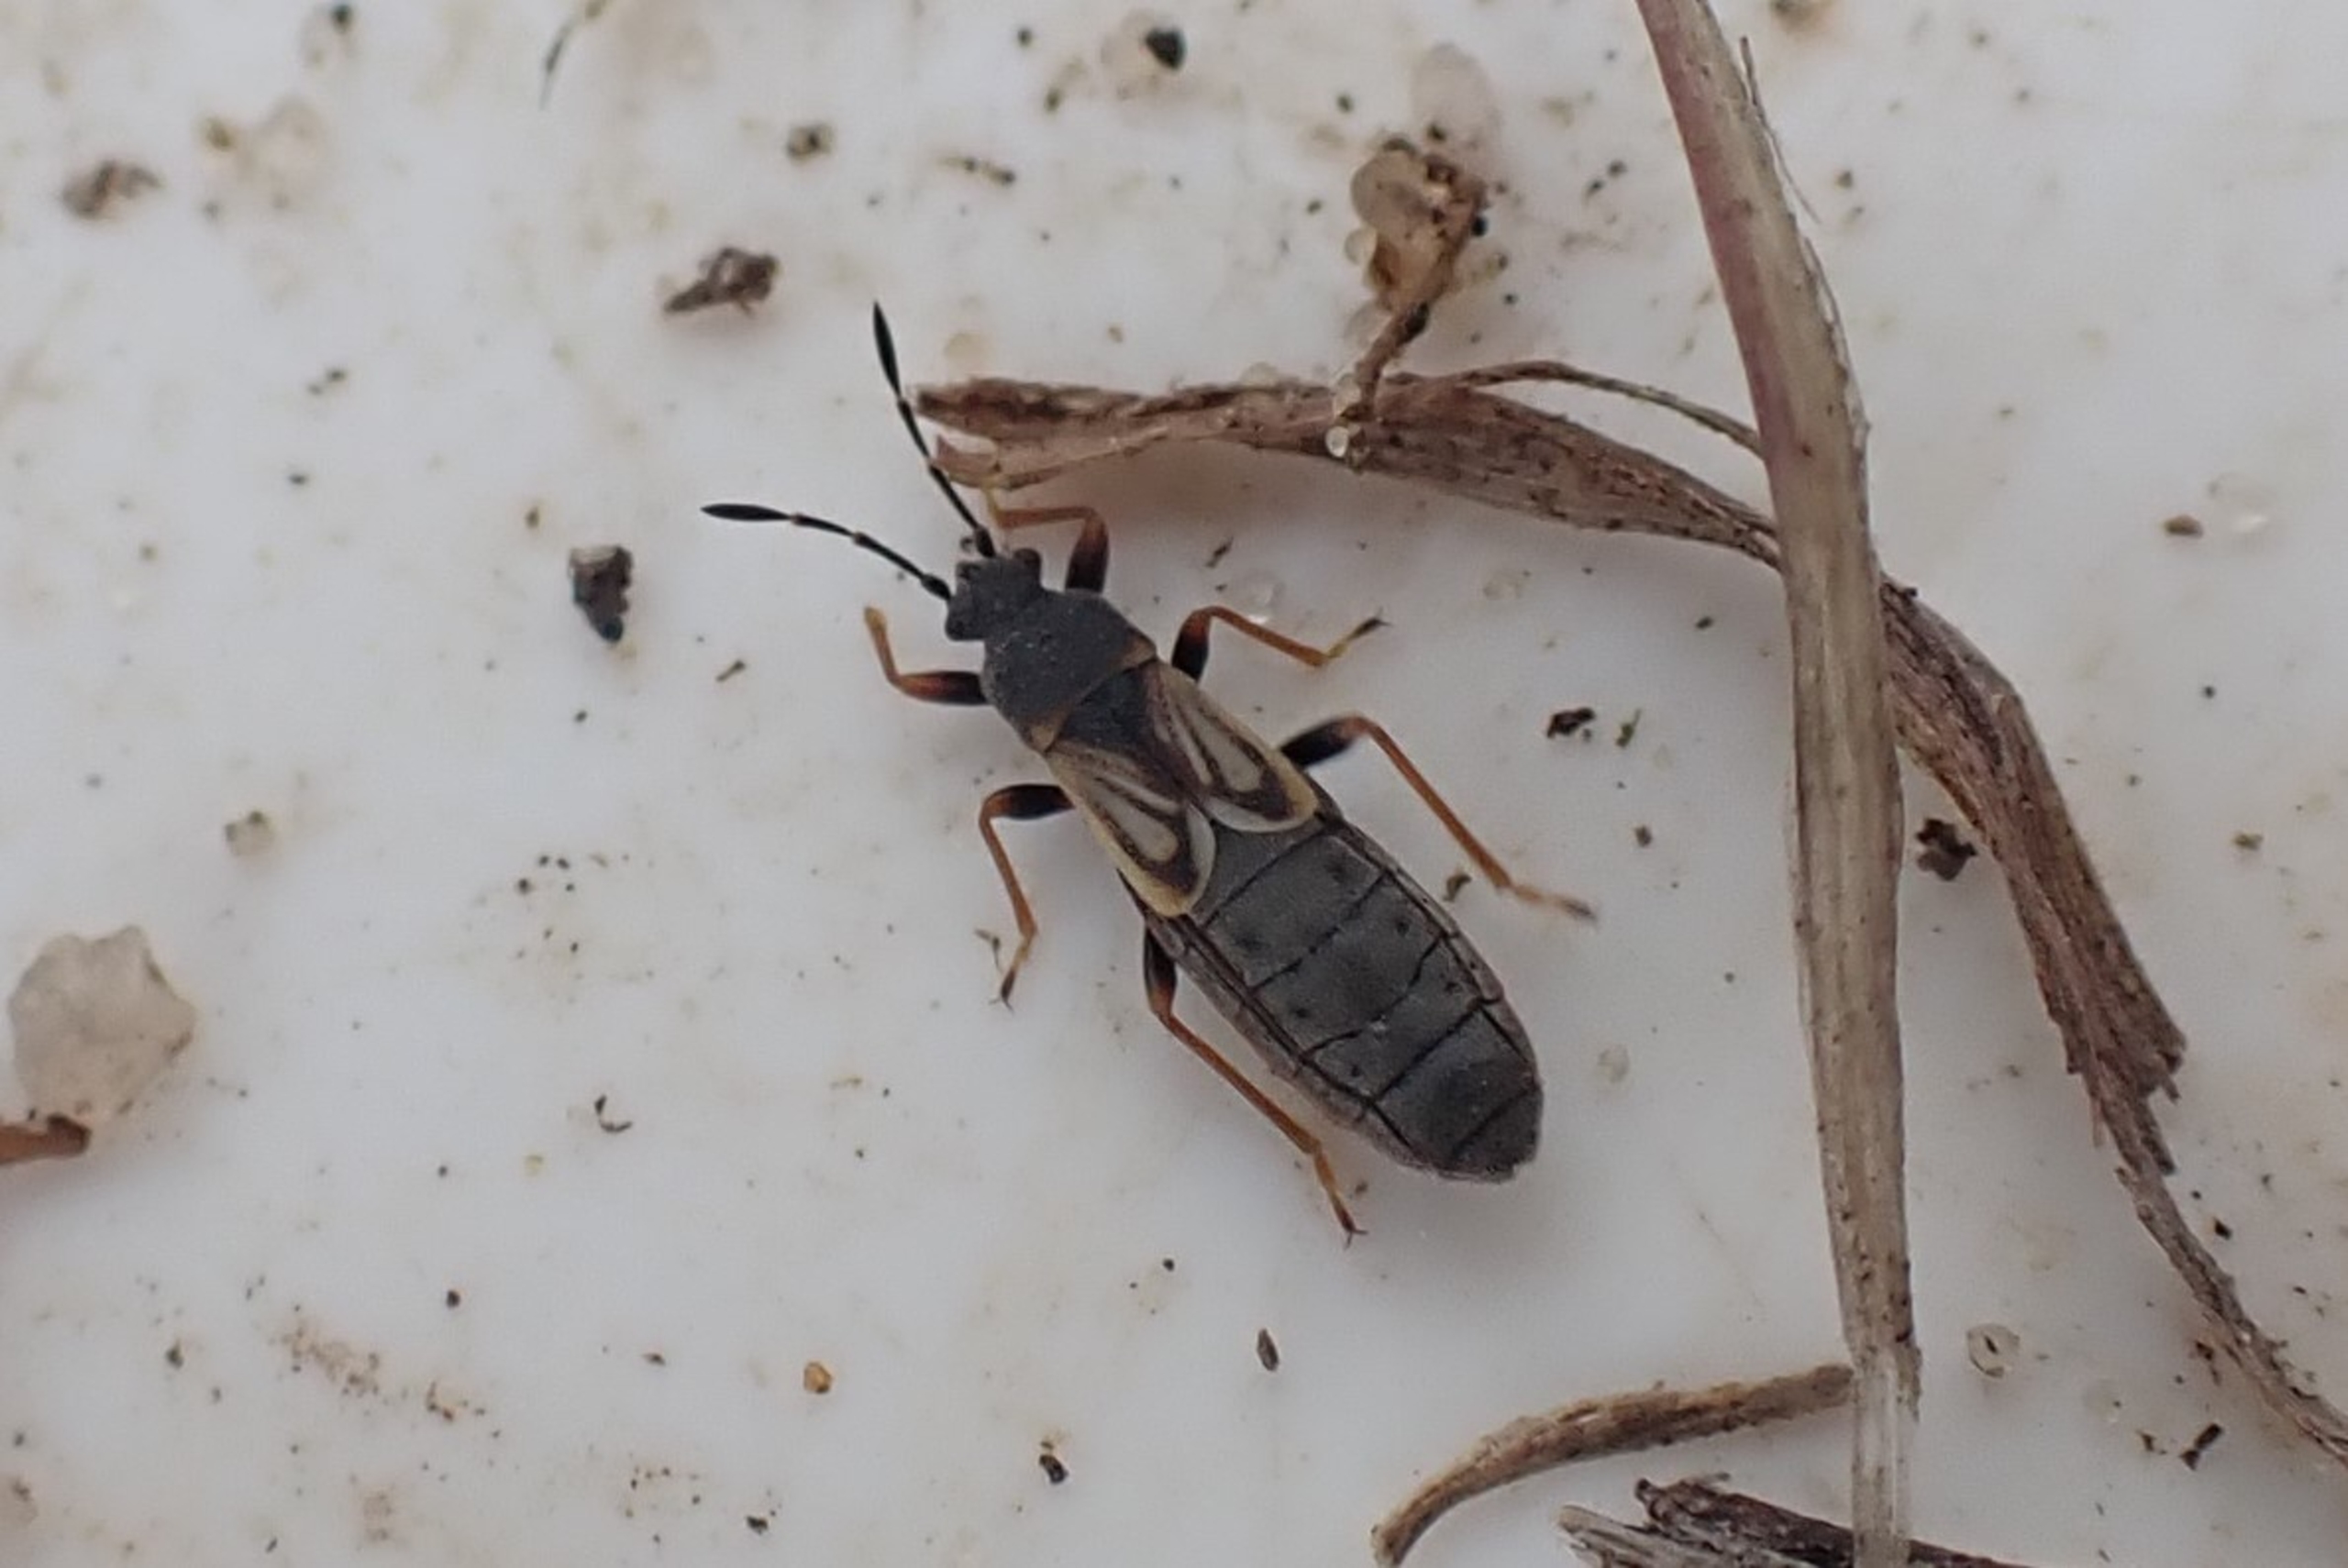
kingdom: Animalia
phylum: Arthropoda
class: Insecta
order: Hemiptera
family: Blissidae
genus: Ischnodemus
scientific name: Ischnodemus sabuleti
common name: Smaltæge
